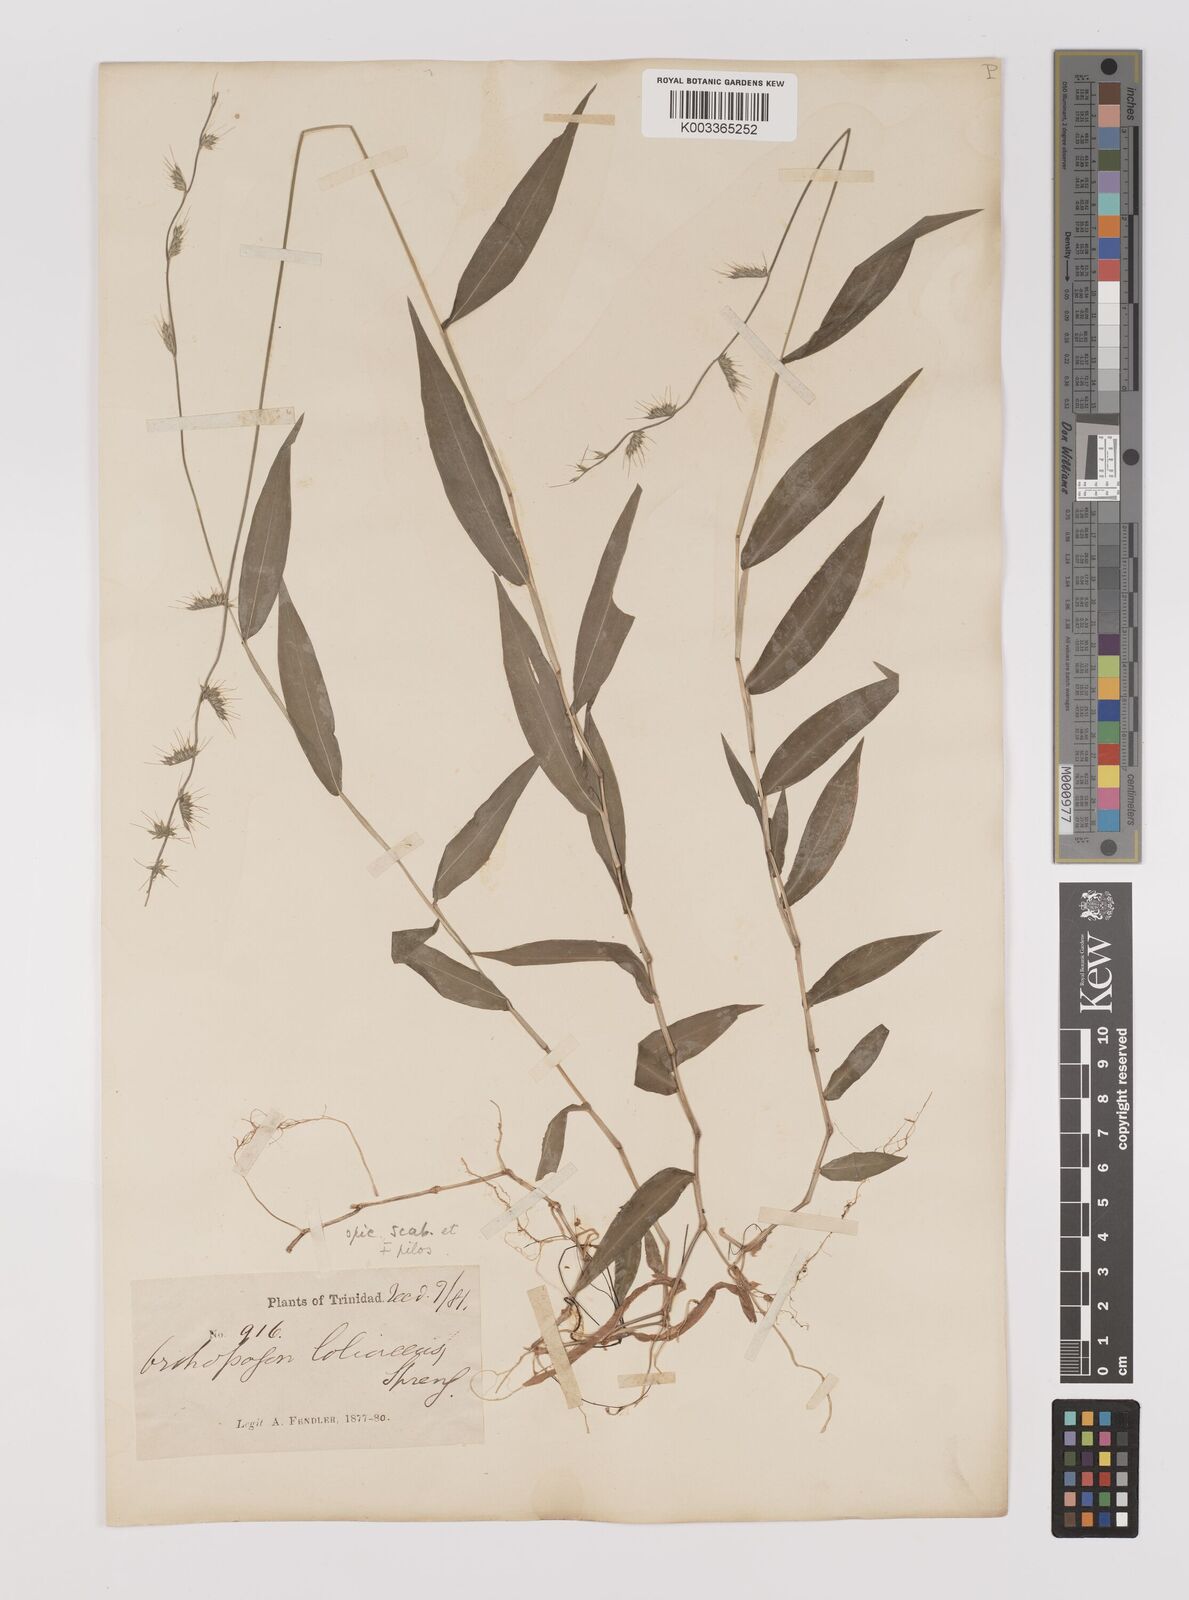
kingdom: Plantae
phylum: Tracheophyta
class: Liliopsida
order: Poales
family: Poaceae
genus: Oplismenus
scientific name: Oplismenus hirtellus
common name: Basketgrass
